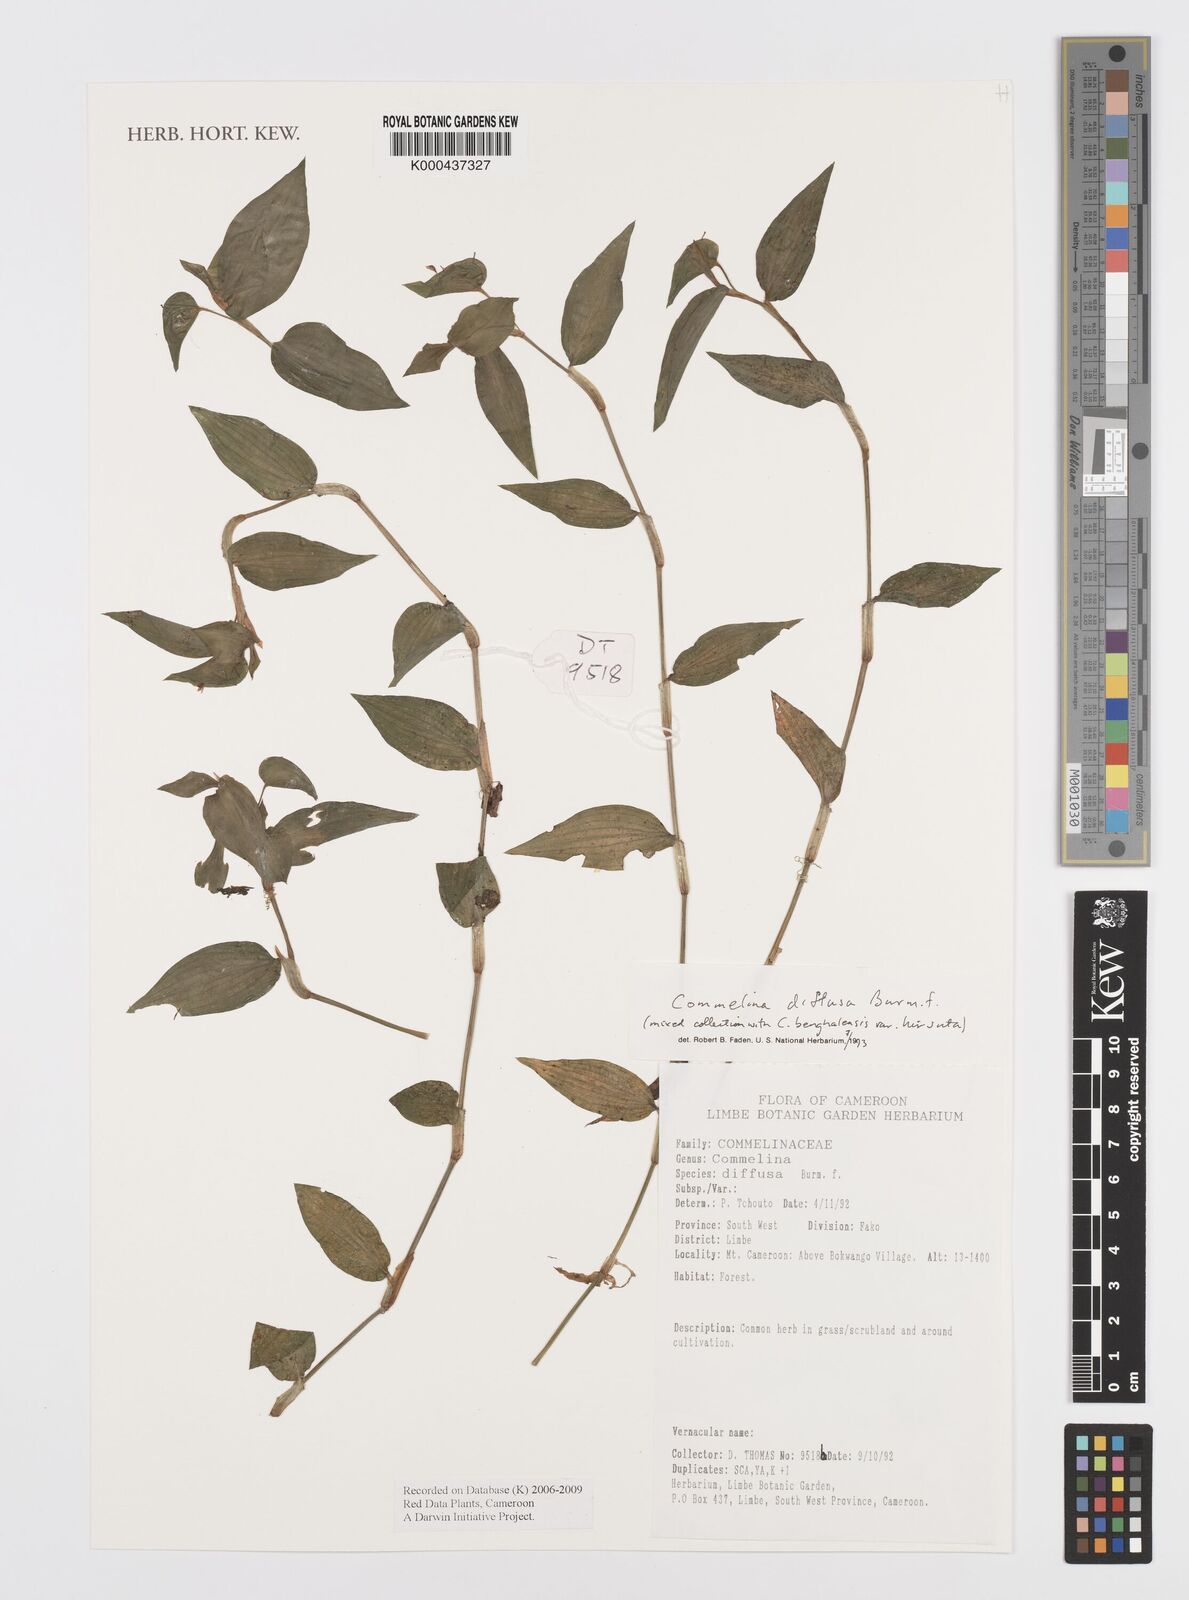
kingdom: Plantae
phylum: Tracheophyta
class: Liliopsida
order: Commelinales
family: Commelinaceae
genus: Commelina
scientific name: Commelina diffusa
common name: Climbing dayflower
